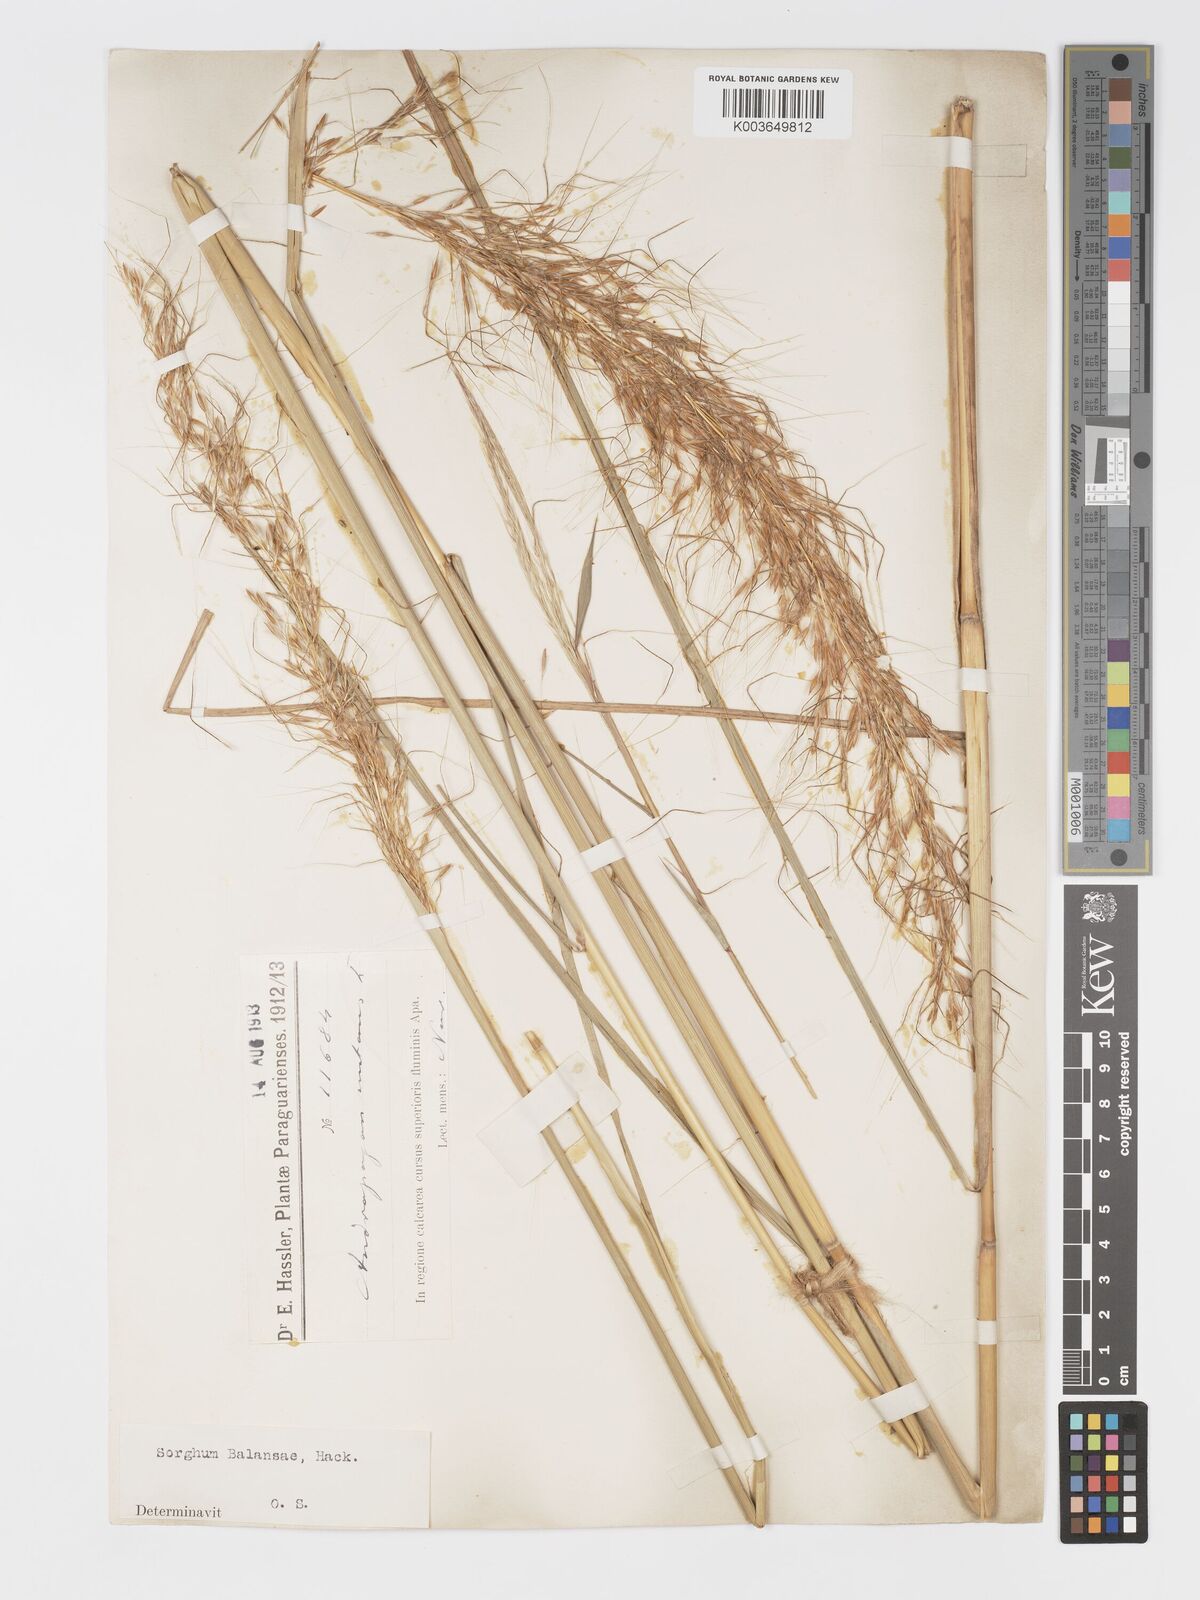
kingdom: Plantae
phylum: Tracheophyta
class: Liliopsida
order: Poales
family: Poaceae
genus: Sorghastrum
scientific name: Sorghastrum balansae
